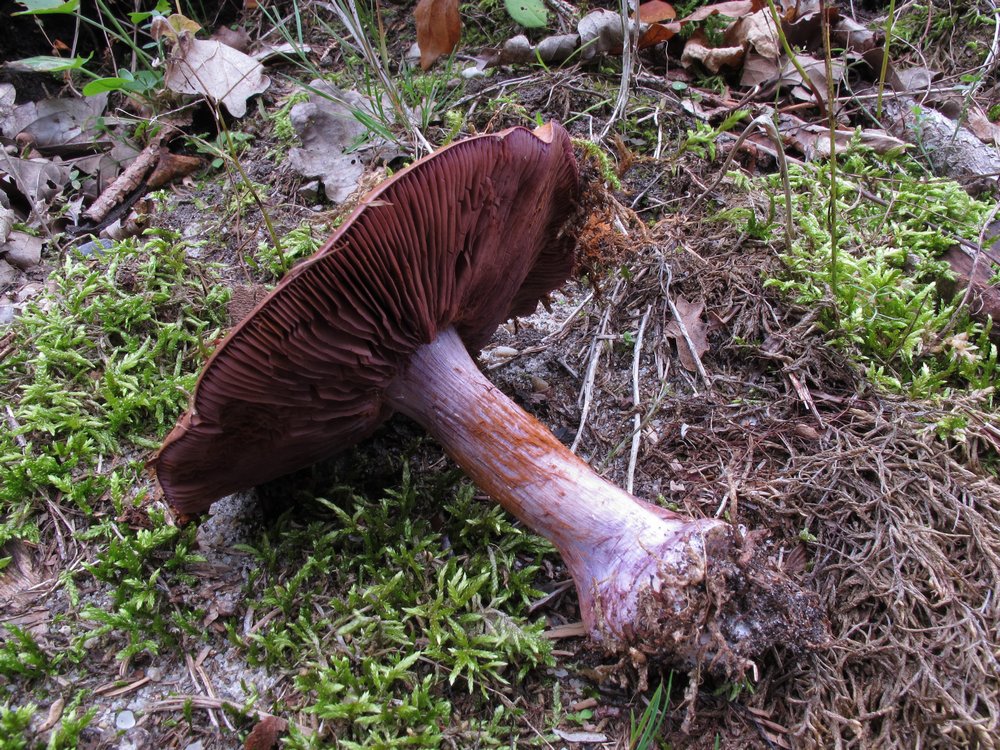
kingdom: Fungi
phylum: Basidiomycota
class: Agaricomycetes
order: Agaricales
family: Cortinariaceae
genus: Thaxterogaster
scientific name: Thaxterogaster purpurascens
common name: purpurbrun slørhat
